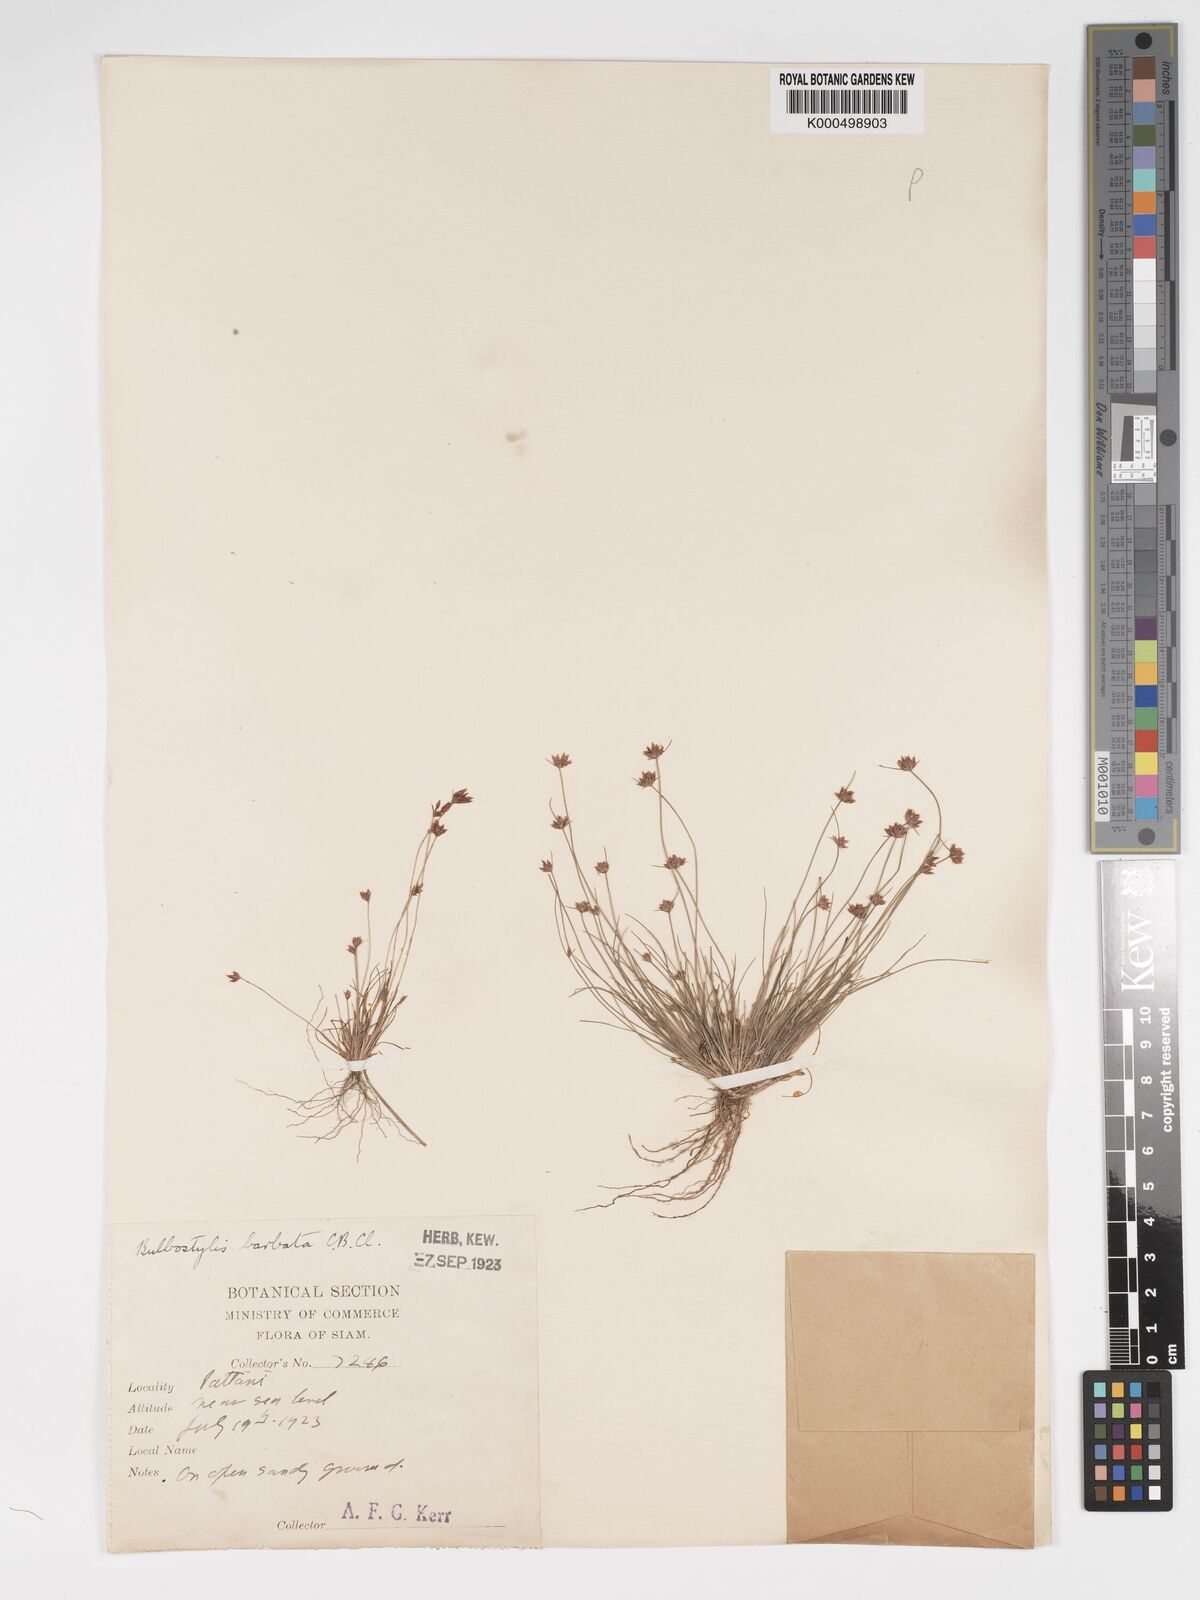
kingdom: Plantae
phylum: Tracheophyta
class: Liliopsida
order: Poales
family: Cyperaceae
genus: Bulbostylis
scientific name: Bulbostylis barbata
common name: Watergrass
